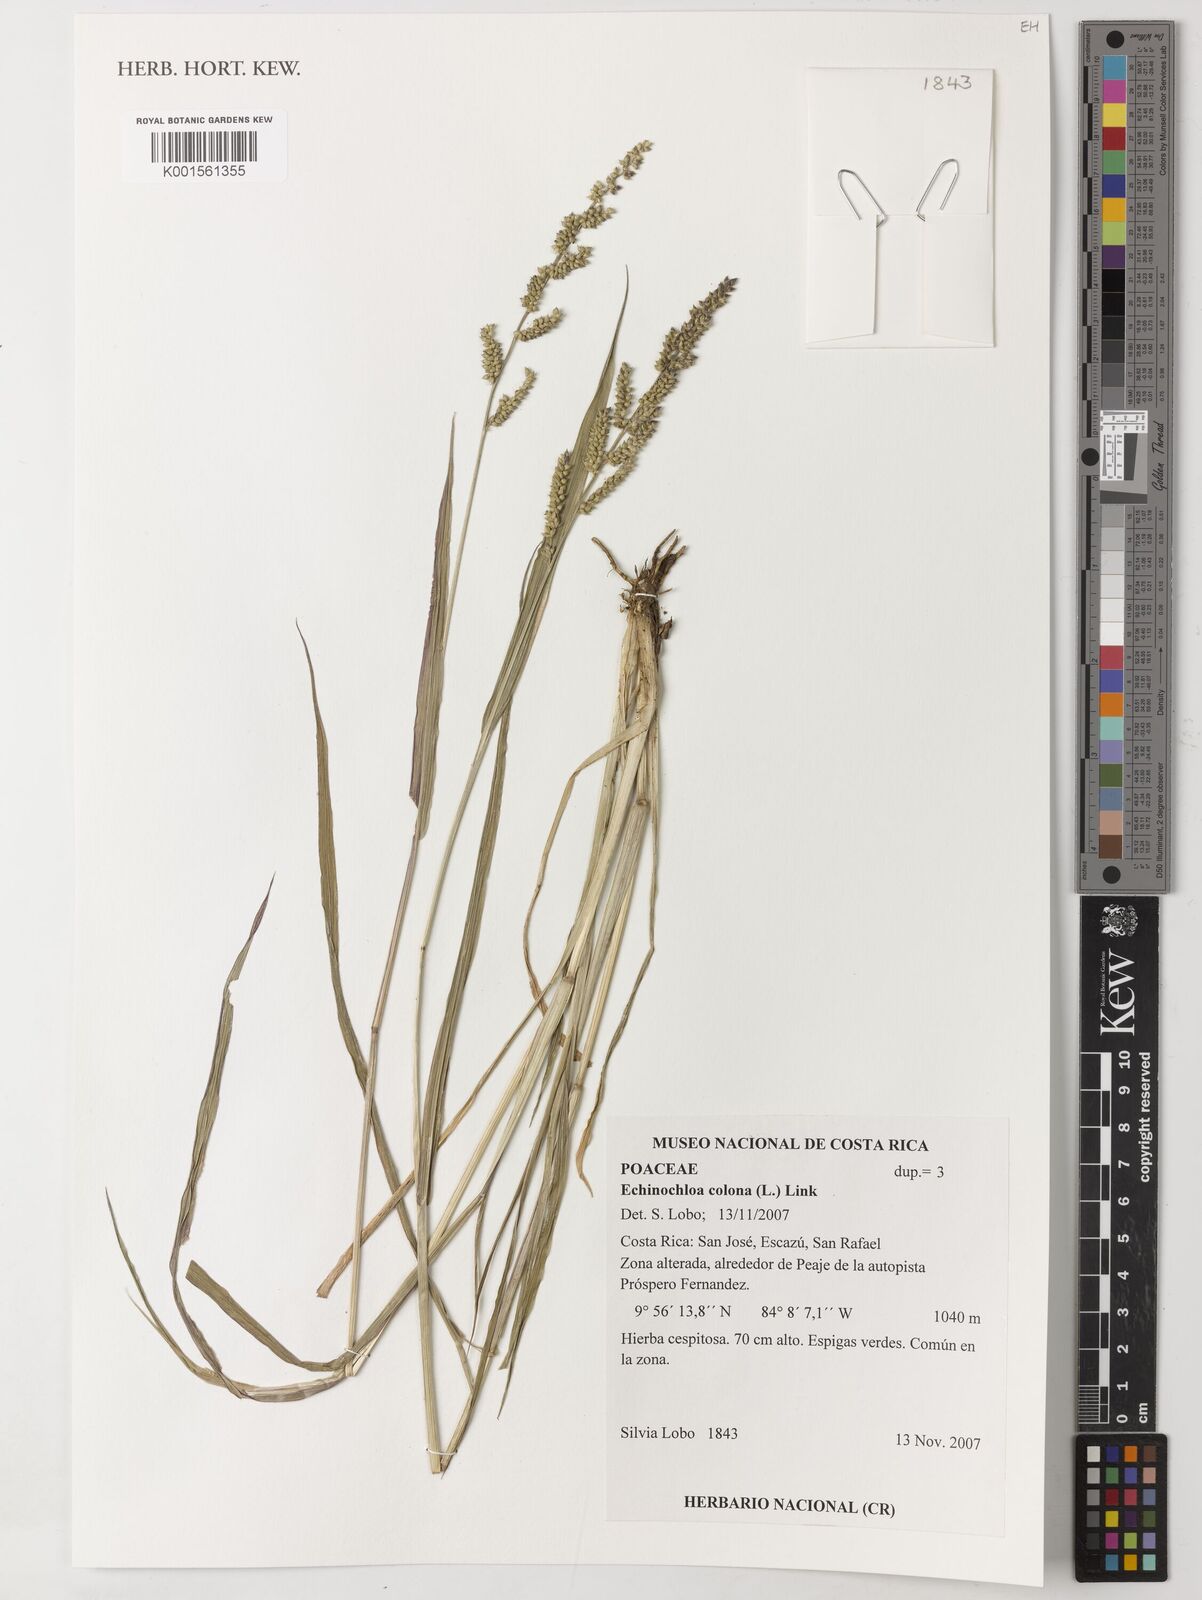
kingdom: Plantae
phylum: Tracheophyta
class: Liliopsida
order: Poales
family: Poaceae
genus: Echinochloa
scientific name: Echinochloa colonum
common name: Jungle rice
